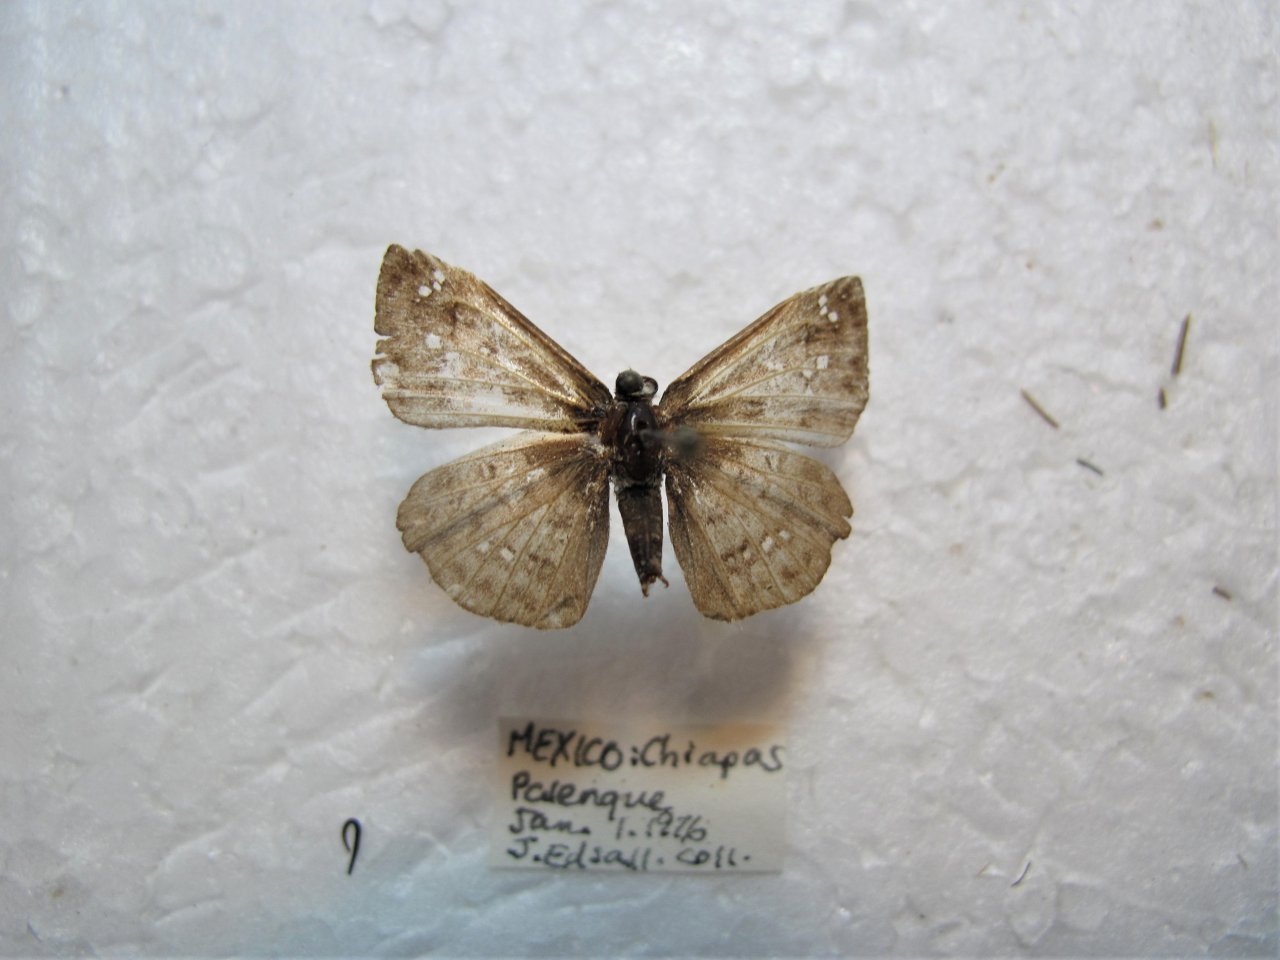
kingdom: Animalia
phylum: Arthropoda
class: Insecta
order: Lepidoptera
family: Hesperiidae
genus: Carrhenes
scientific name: Carrhenes canescens
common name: Hoary Skipper
